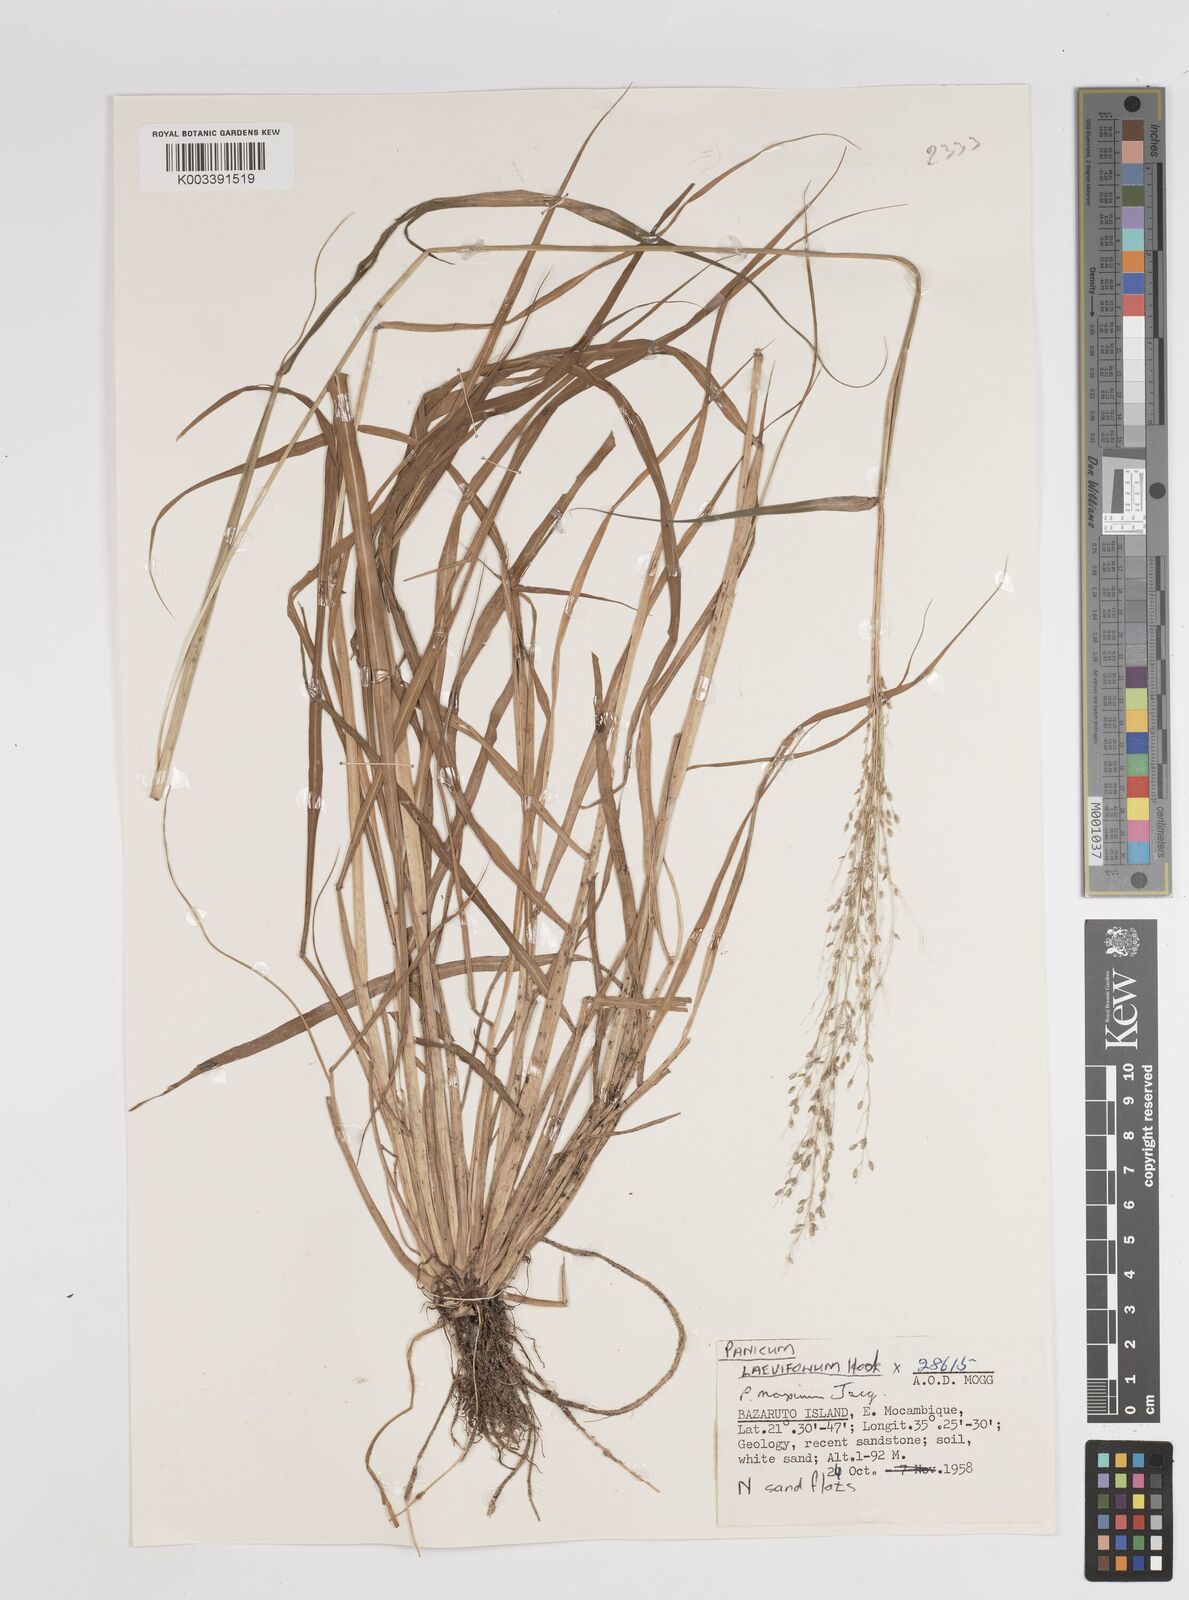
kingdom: Plantae
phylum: Tracheophyta
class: Liliopsida
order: Poales
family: Poaceae
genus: Megathyrsus
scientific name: Megathyrsus maximus
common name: Guineagrass
